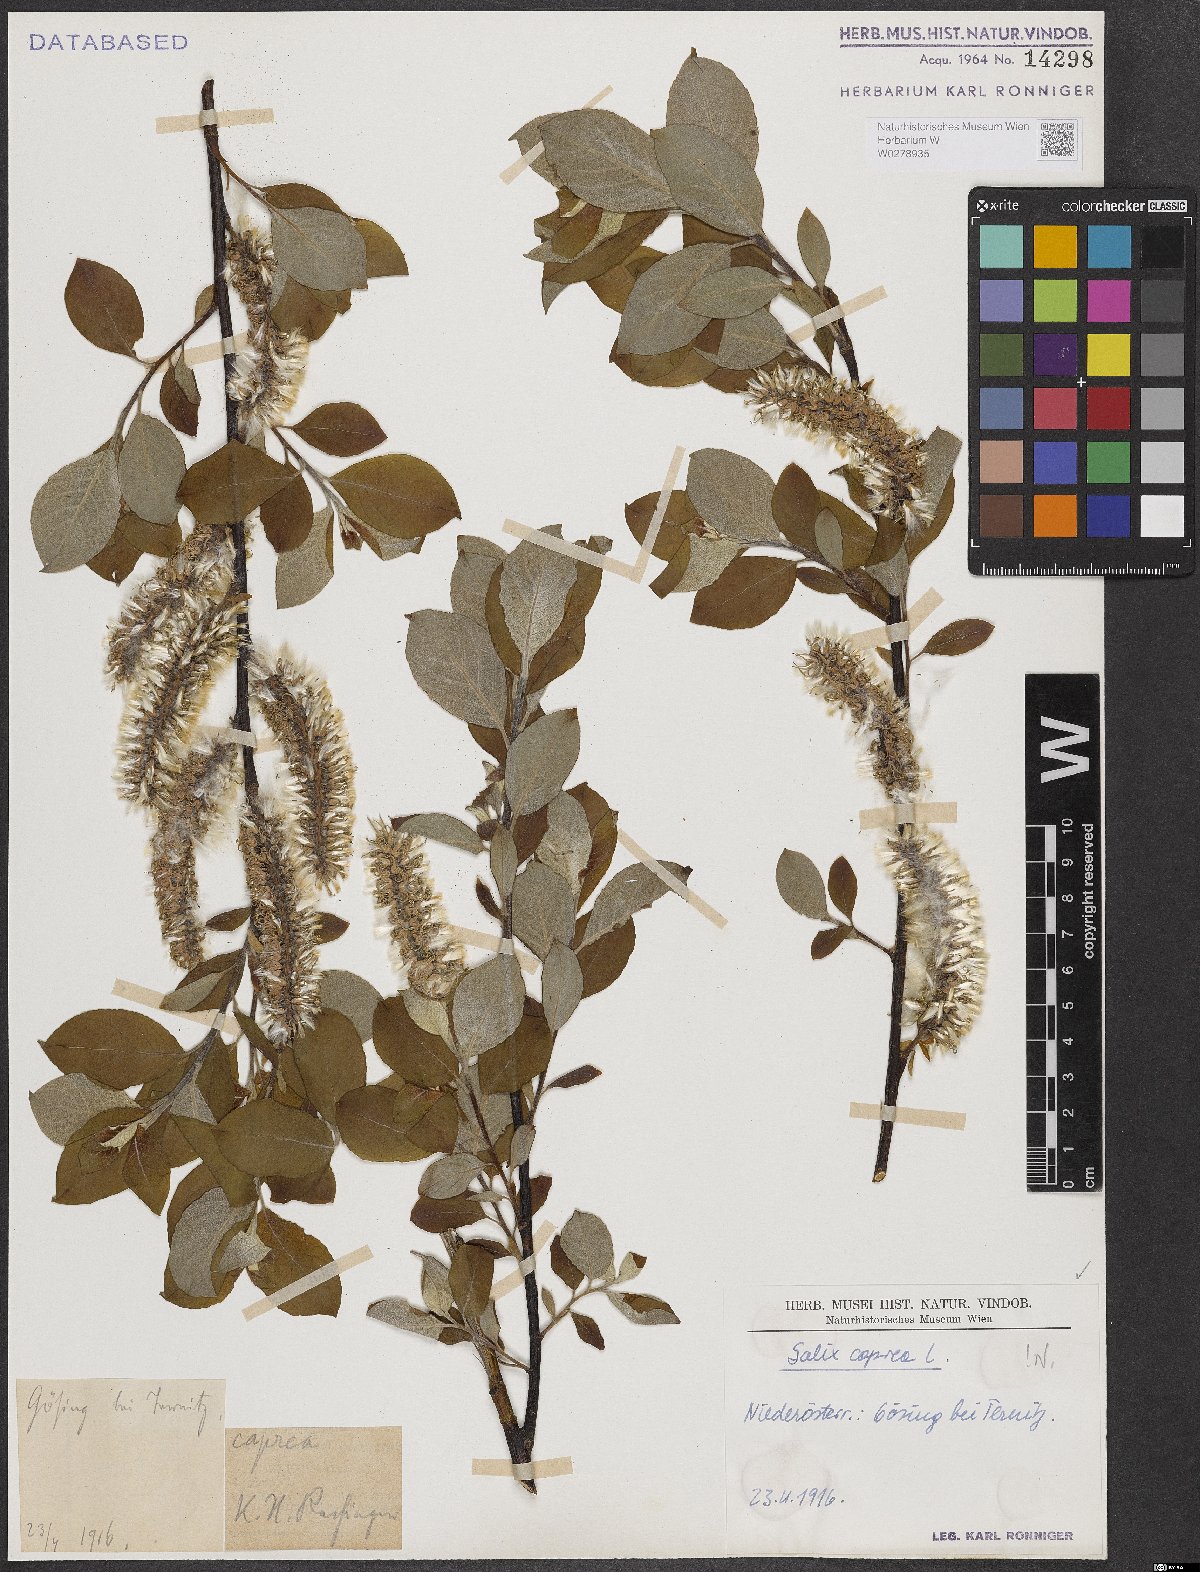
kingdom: Plantae
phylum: Tracheophyta
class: Magnoliopsida
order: Malpighiales
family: Salicaceae
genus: Salix
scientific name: Salix caprea
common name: Goat willow
